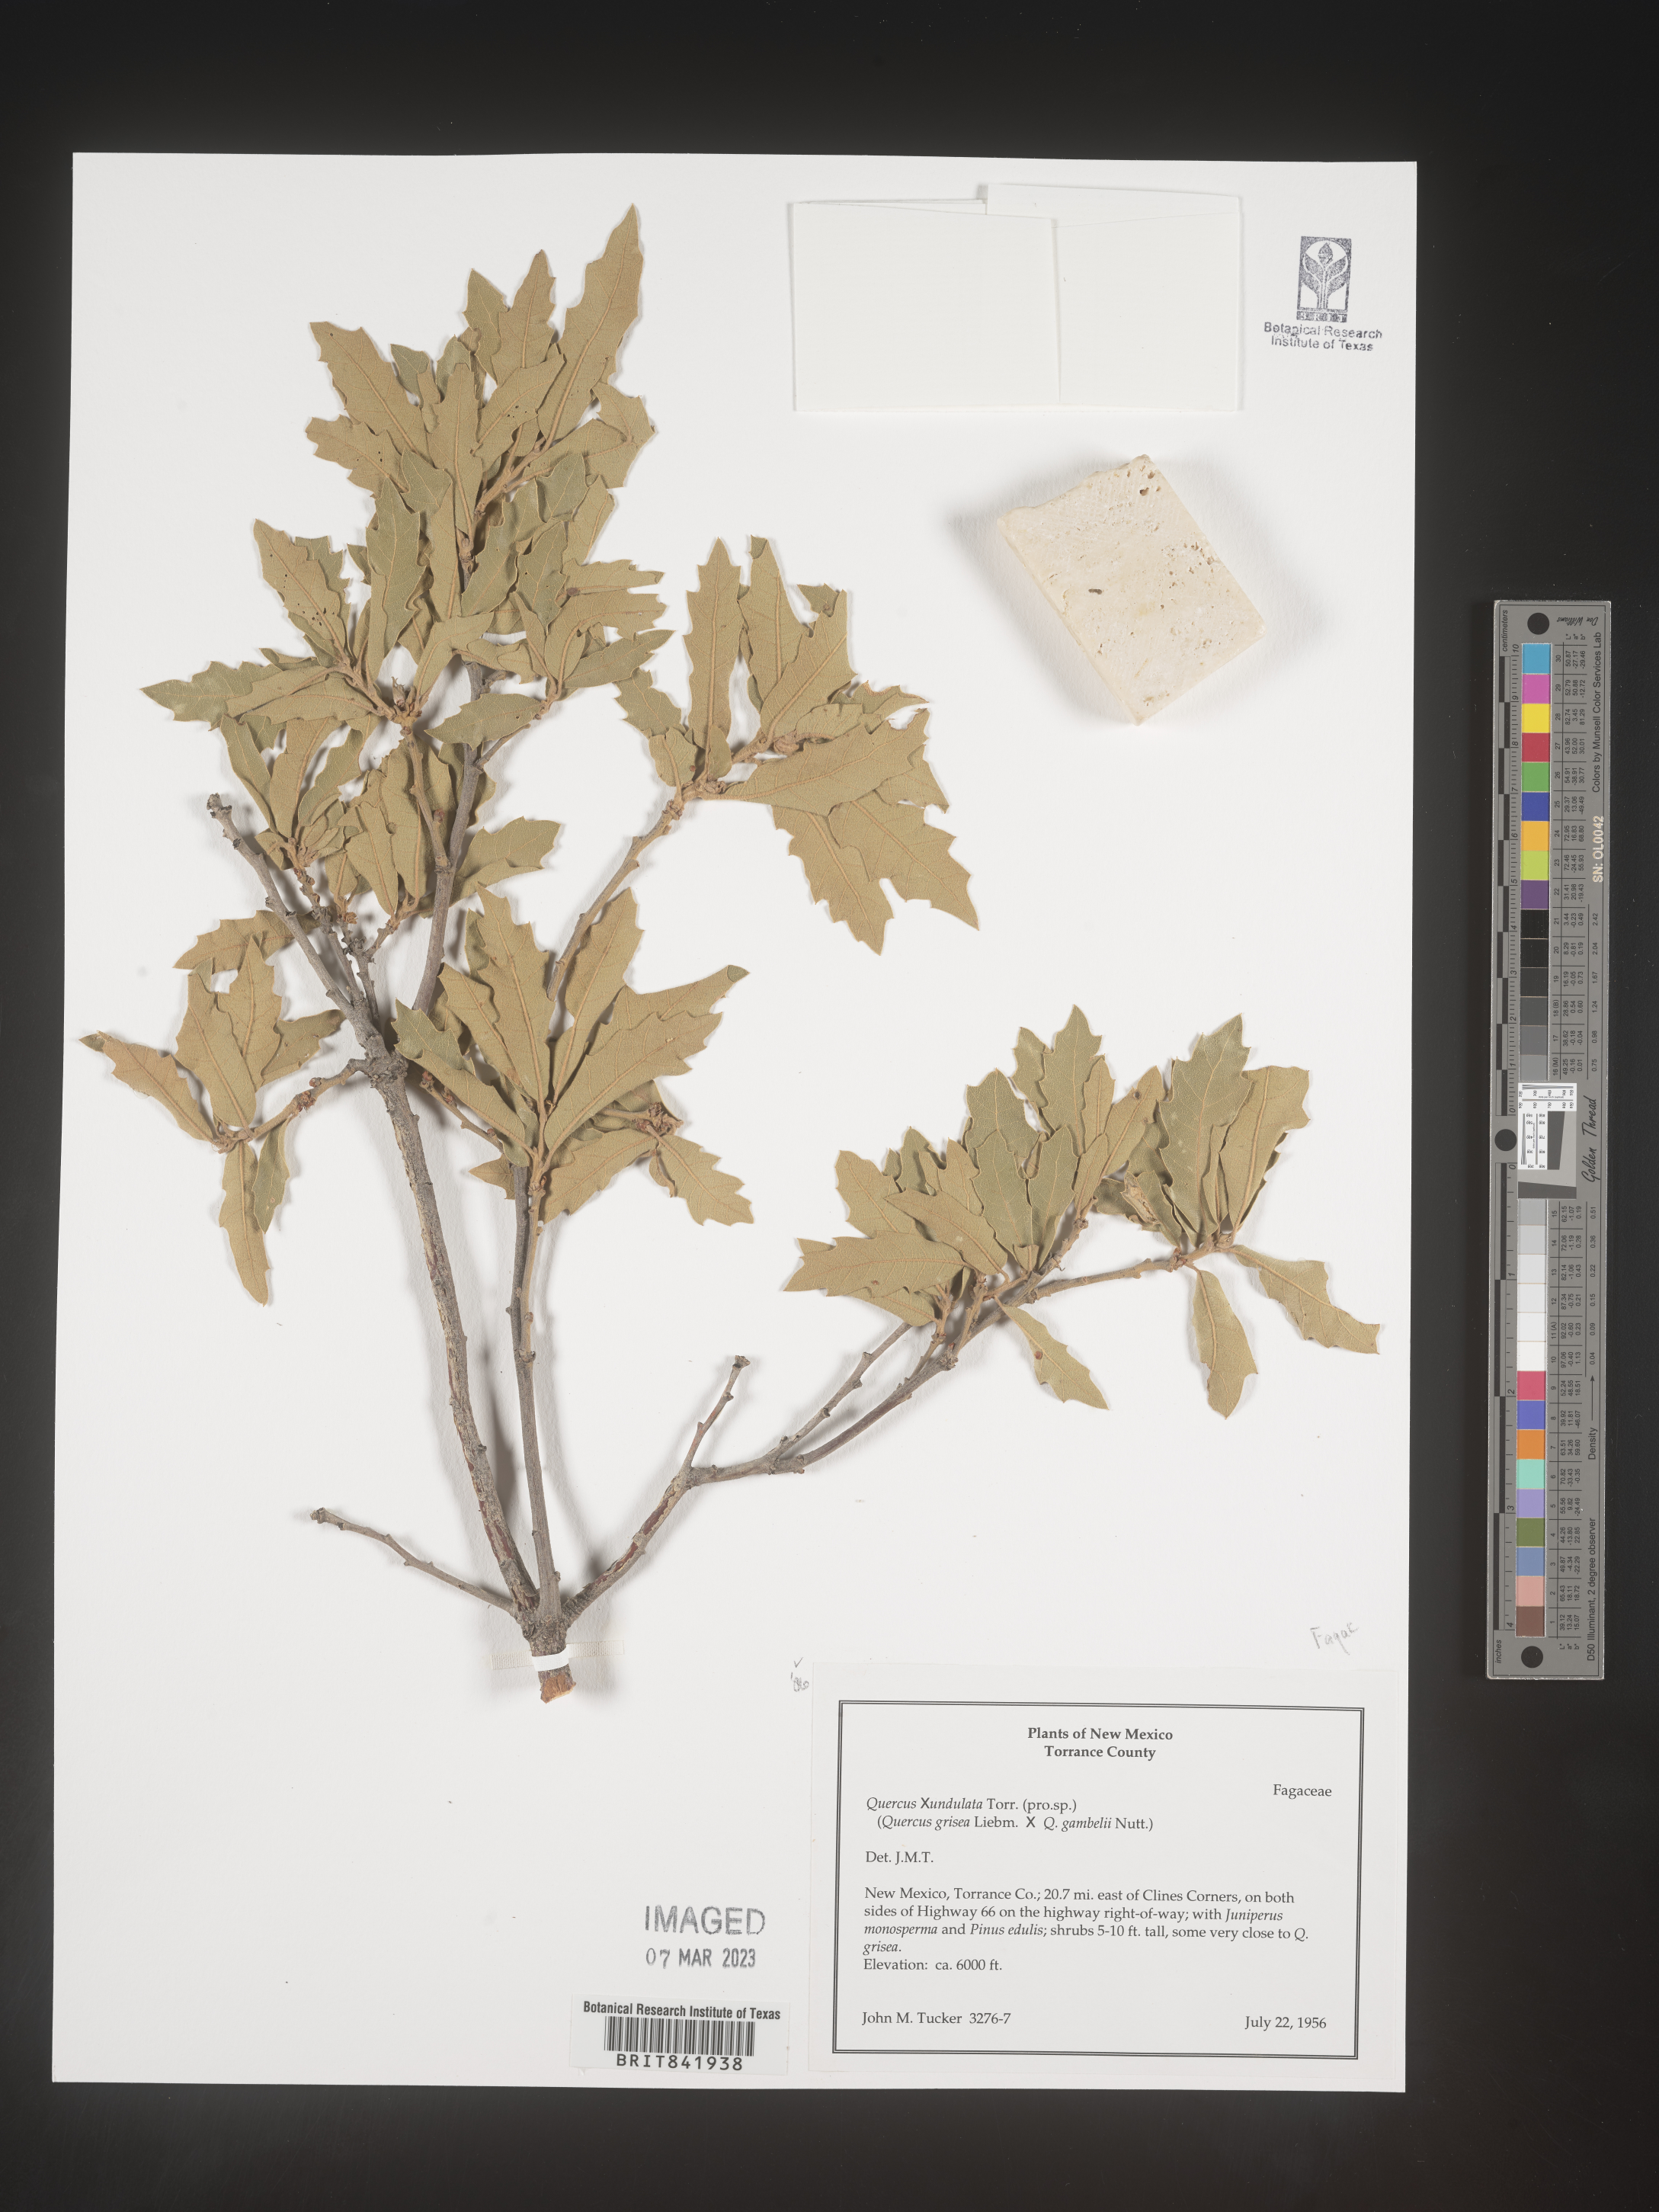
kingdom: Plantae
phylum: Tracheophyta
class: Magnoliopsida
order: Fagales
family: Fagaceae
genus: Quercus
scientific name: Quercus undulata
